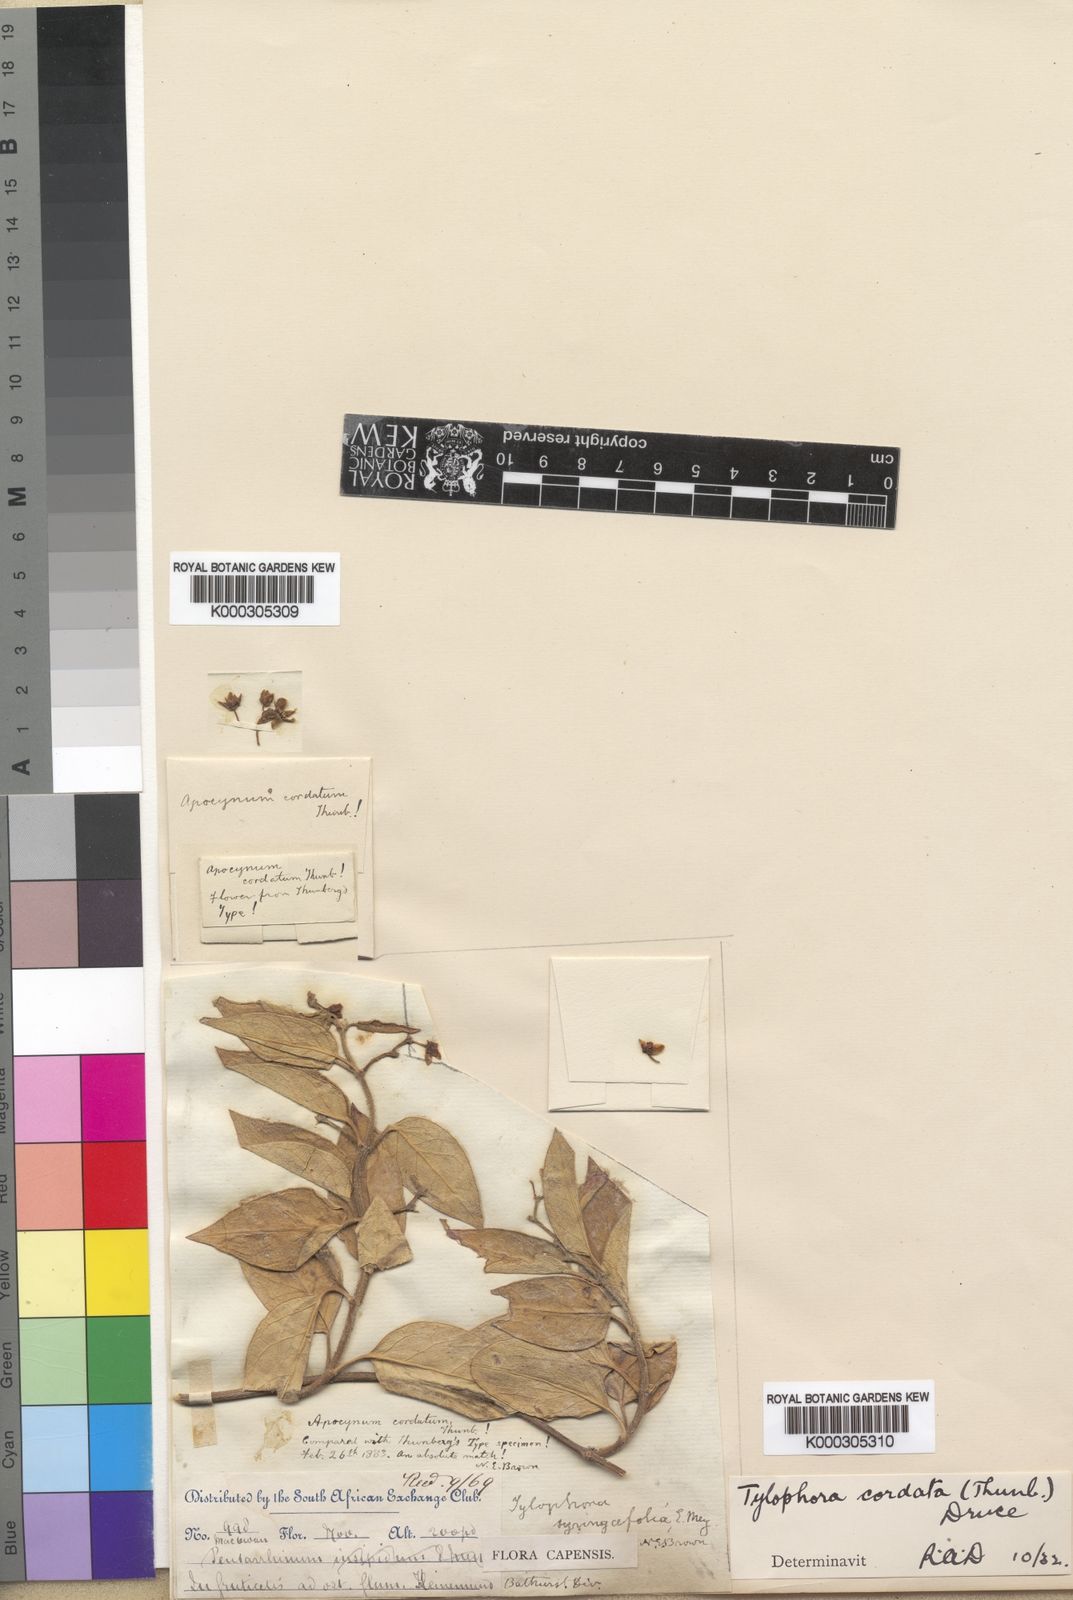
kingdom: Plantae
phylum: Tracheophyta
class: Magnoliopsida
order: Gentianales
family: Apocynaceae
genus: Vincetoxicum
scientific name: Vincetoxicum cordatum
